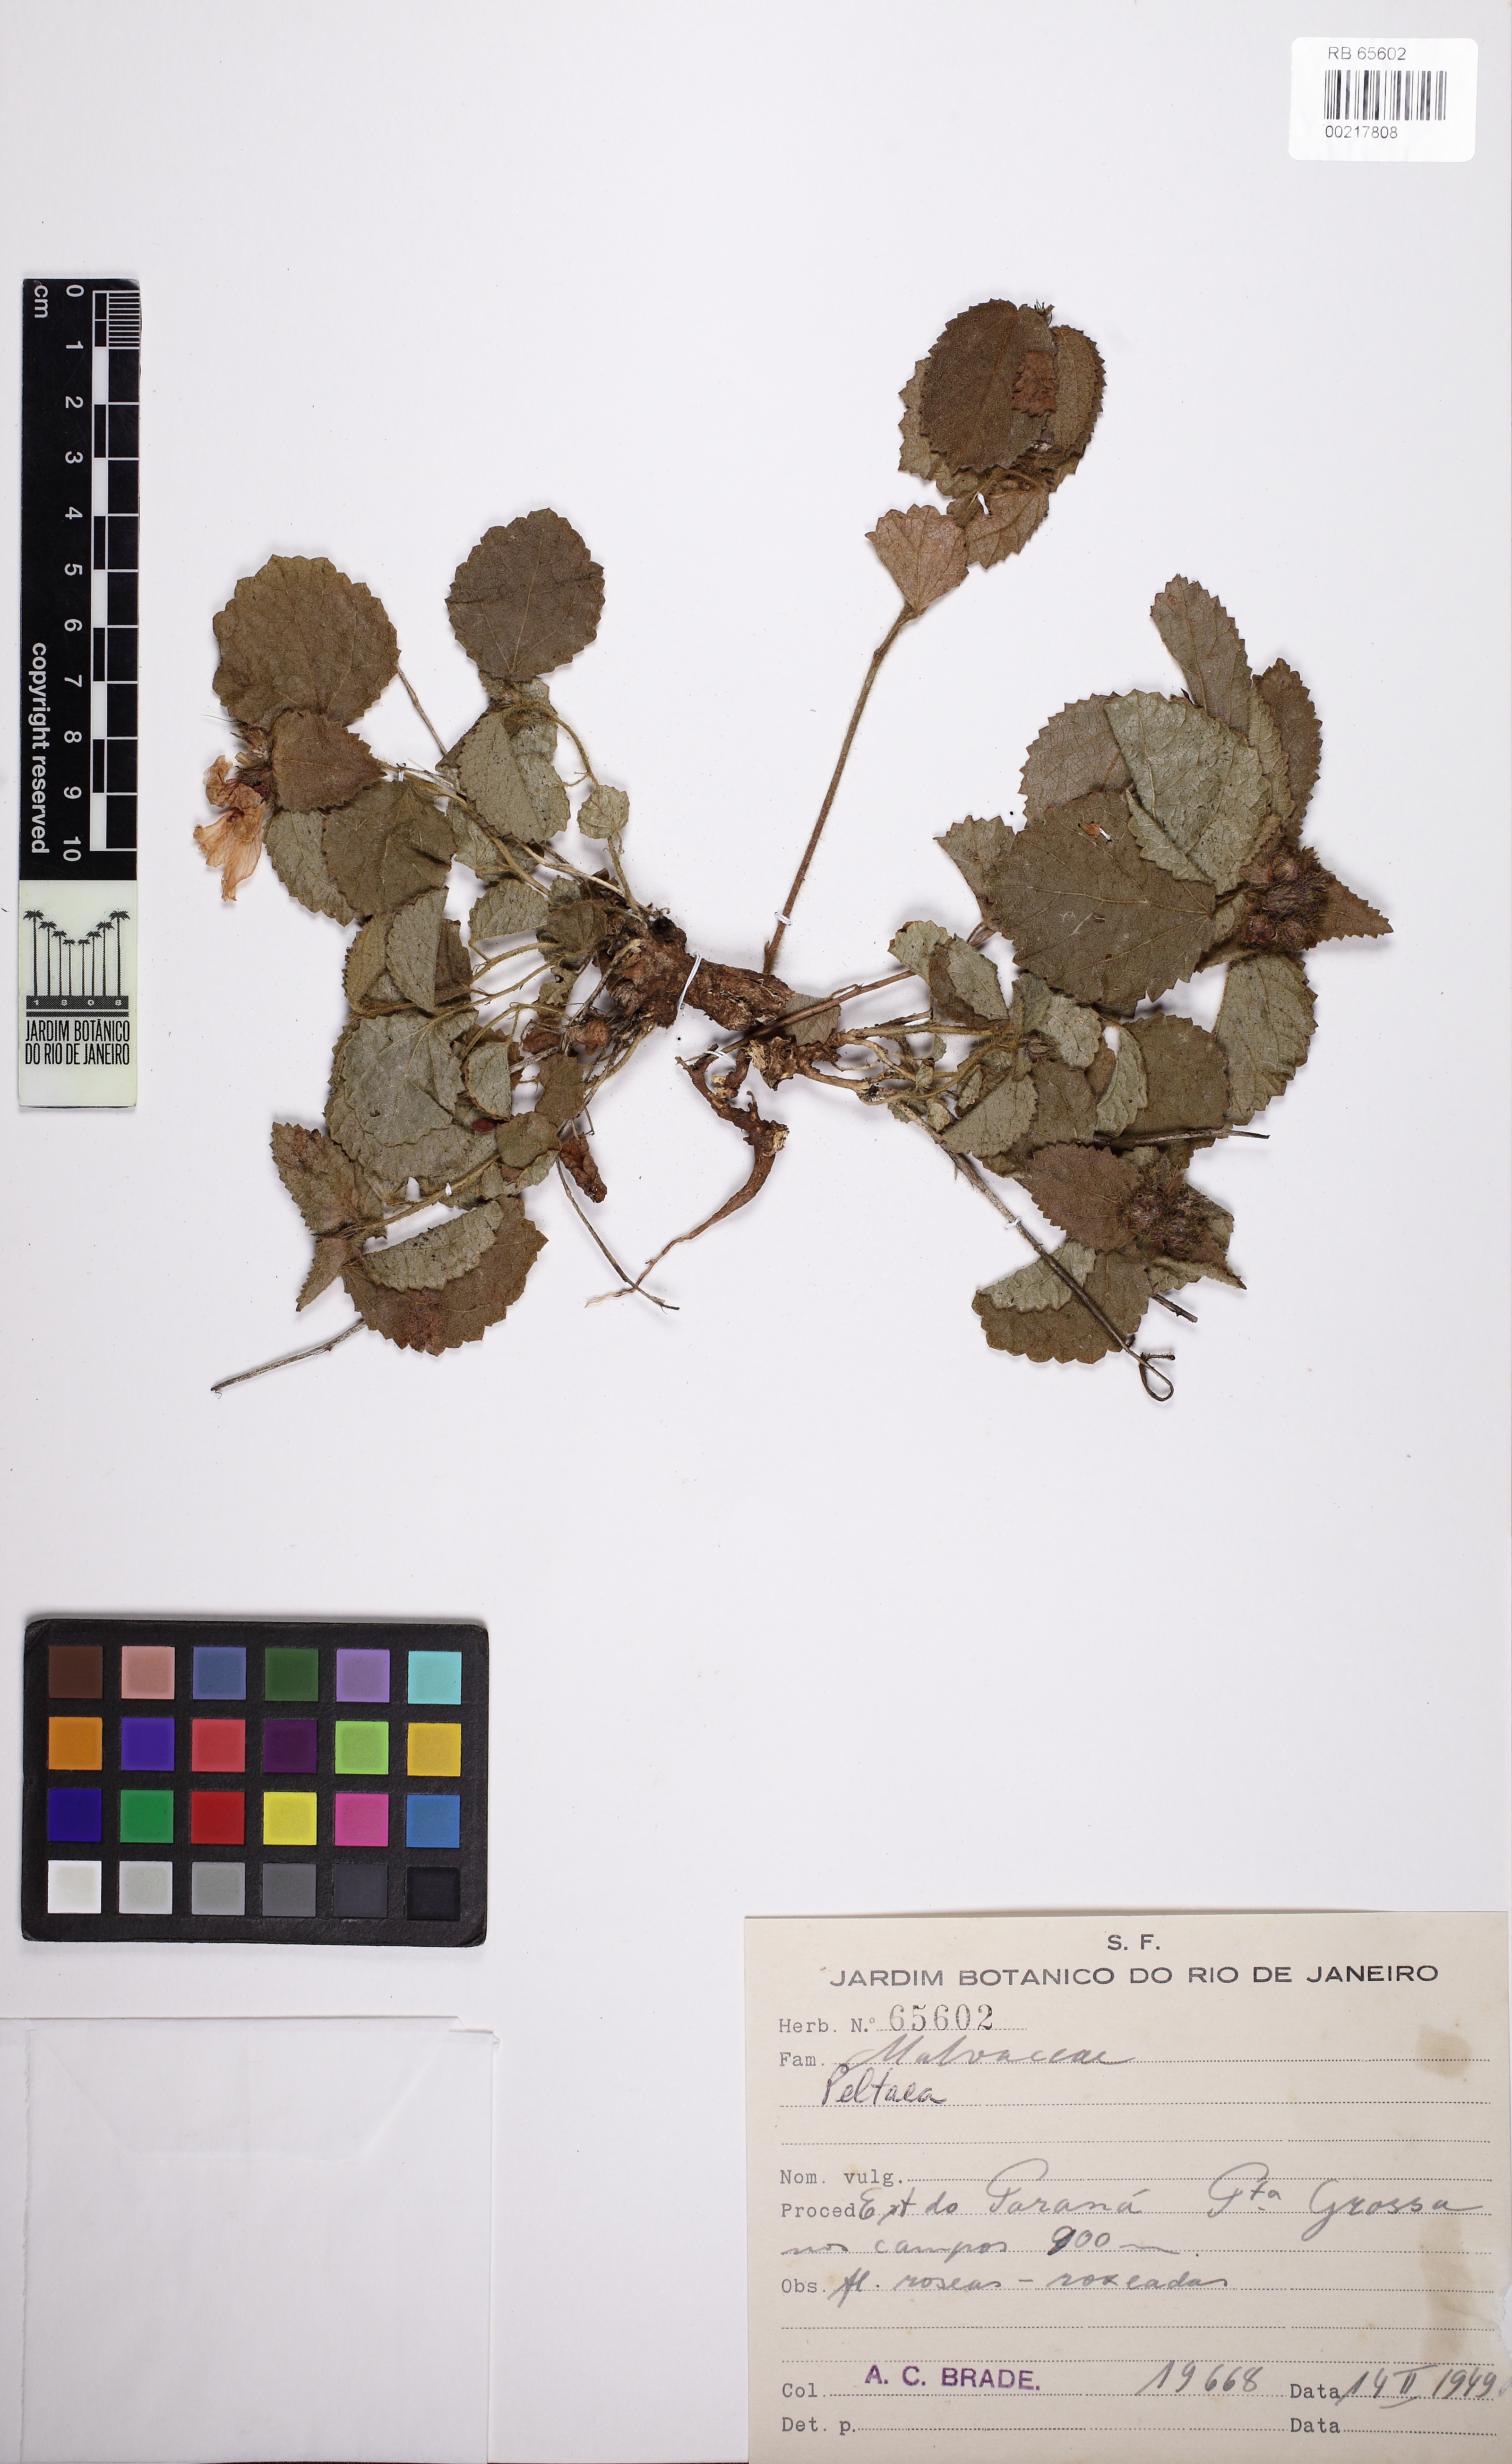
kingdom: Plantae
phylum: Tracheophyta
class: Magnoliopsida
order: Malvales
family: Malvaceae
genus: Peltaea
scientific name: Peltaea polymorpha
